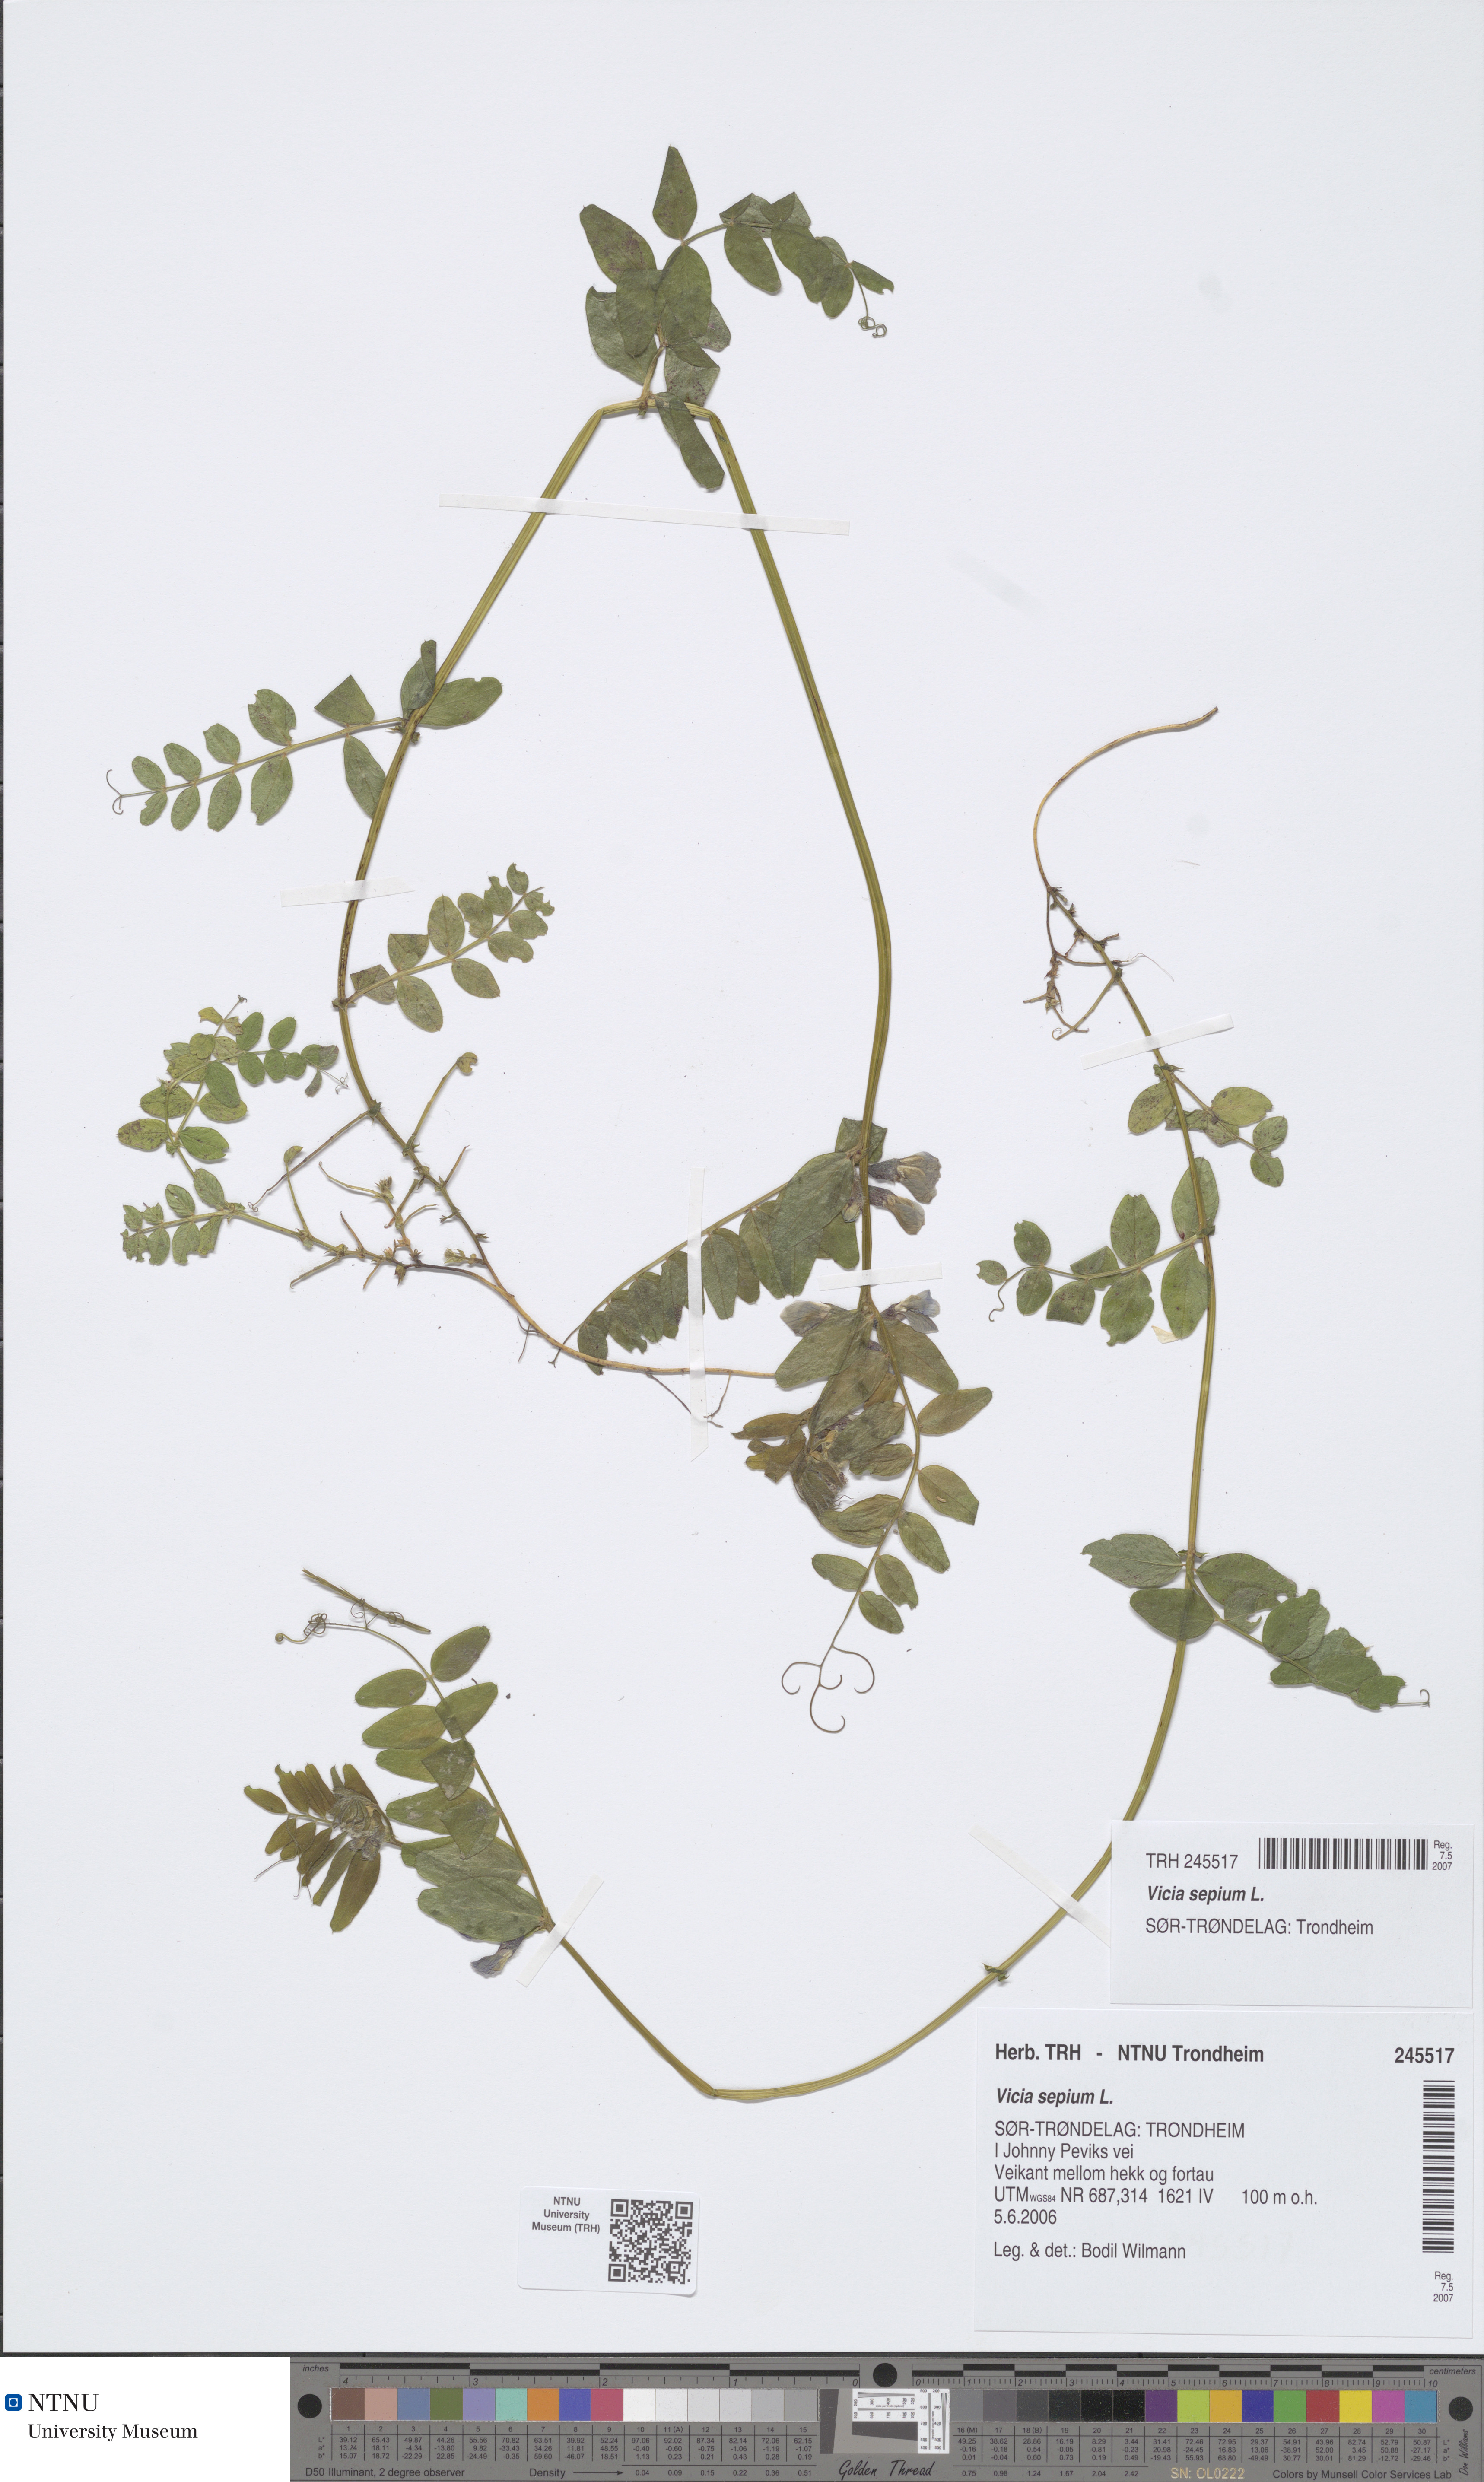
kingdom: Plantae
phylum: Tracheophyta
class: Magnoliopsida
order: Fabales
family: Fabaceae
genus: Vicia
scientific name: Vicia sepium
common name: Bush vetch
